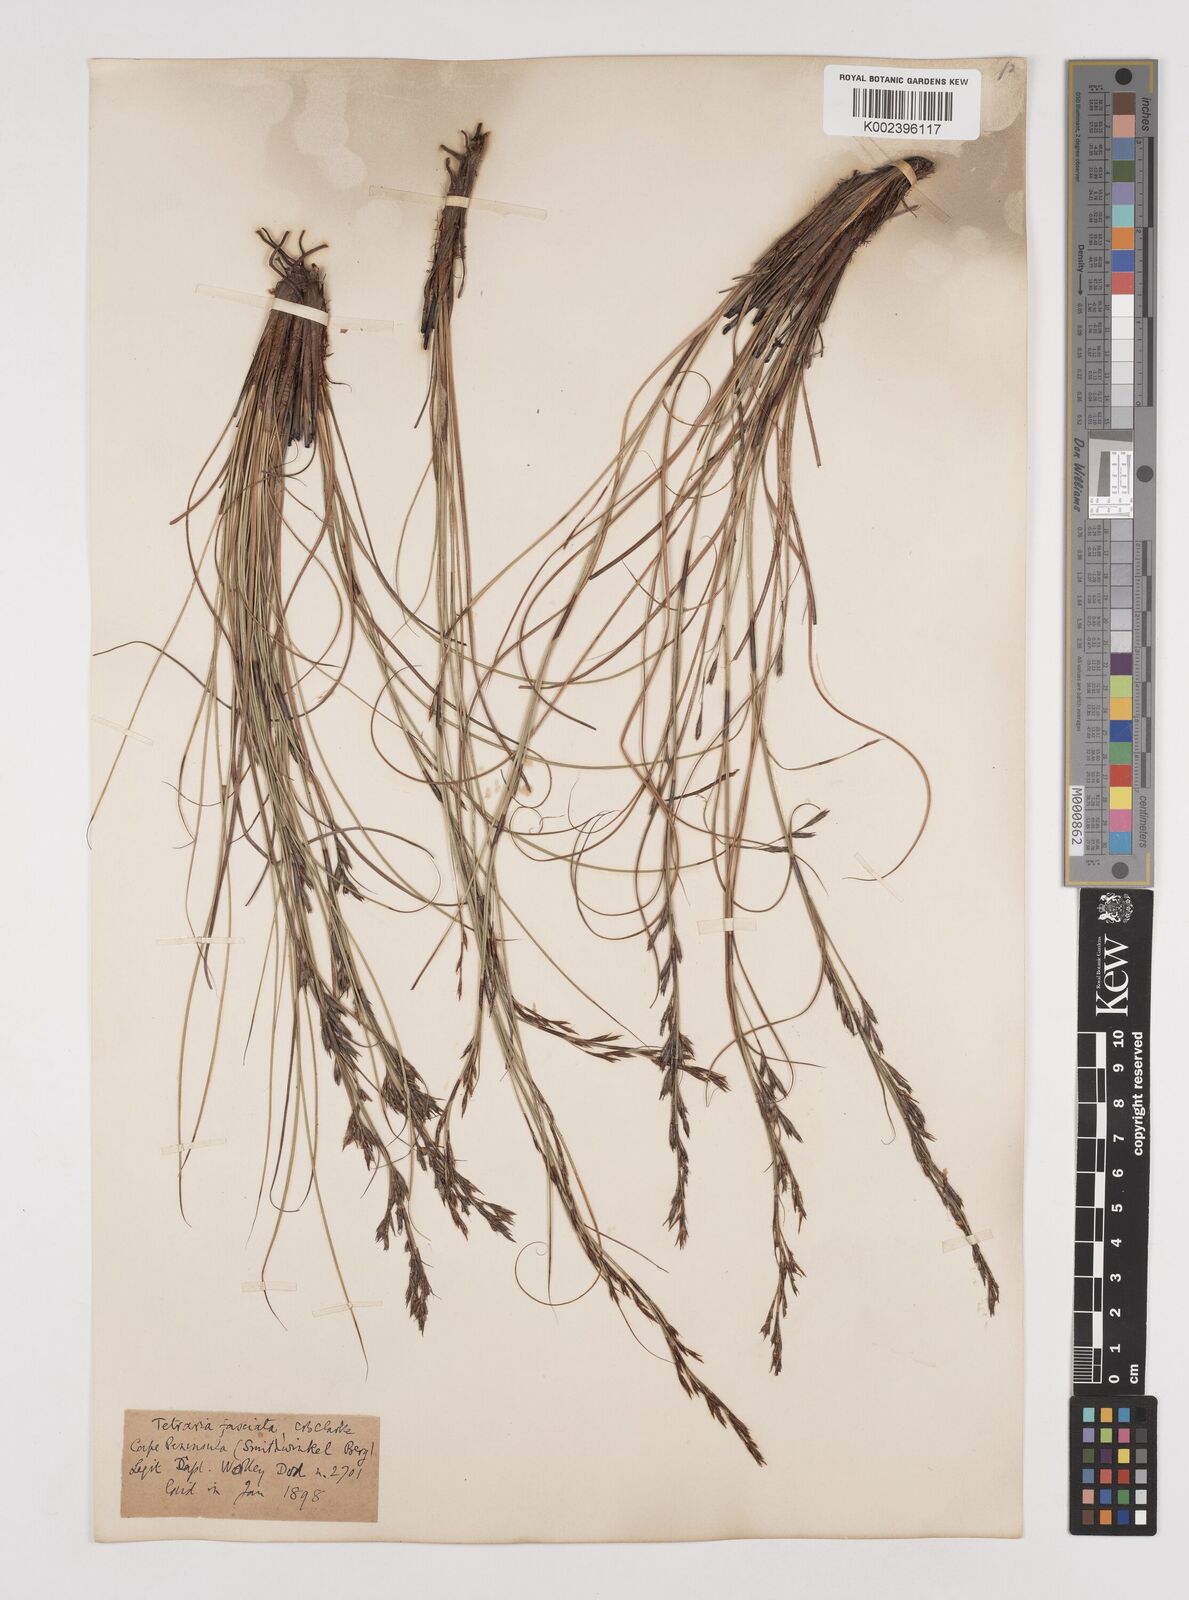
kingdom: Plantae
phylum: Tracheophyta
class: Liliopsida
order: Poales
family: Cyperaceae
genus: Tetraria
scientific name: Tetraria fasciata
